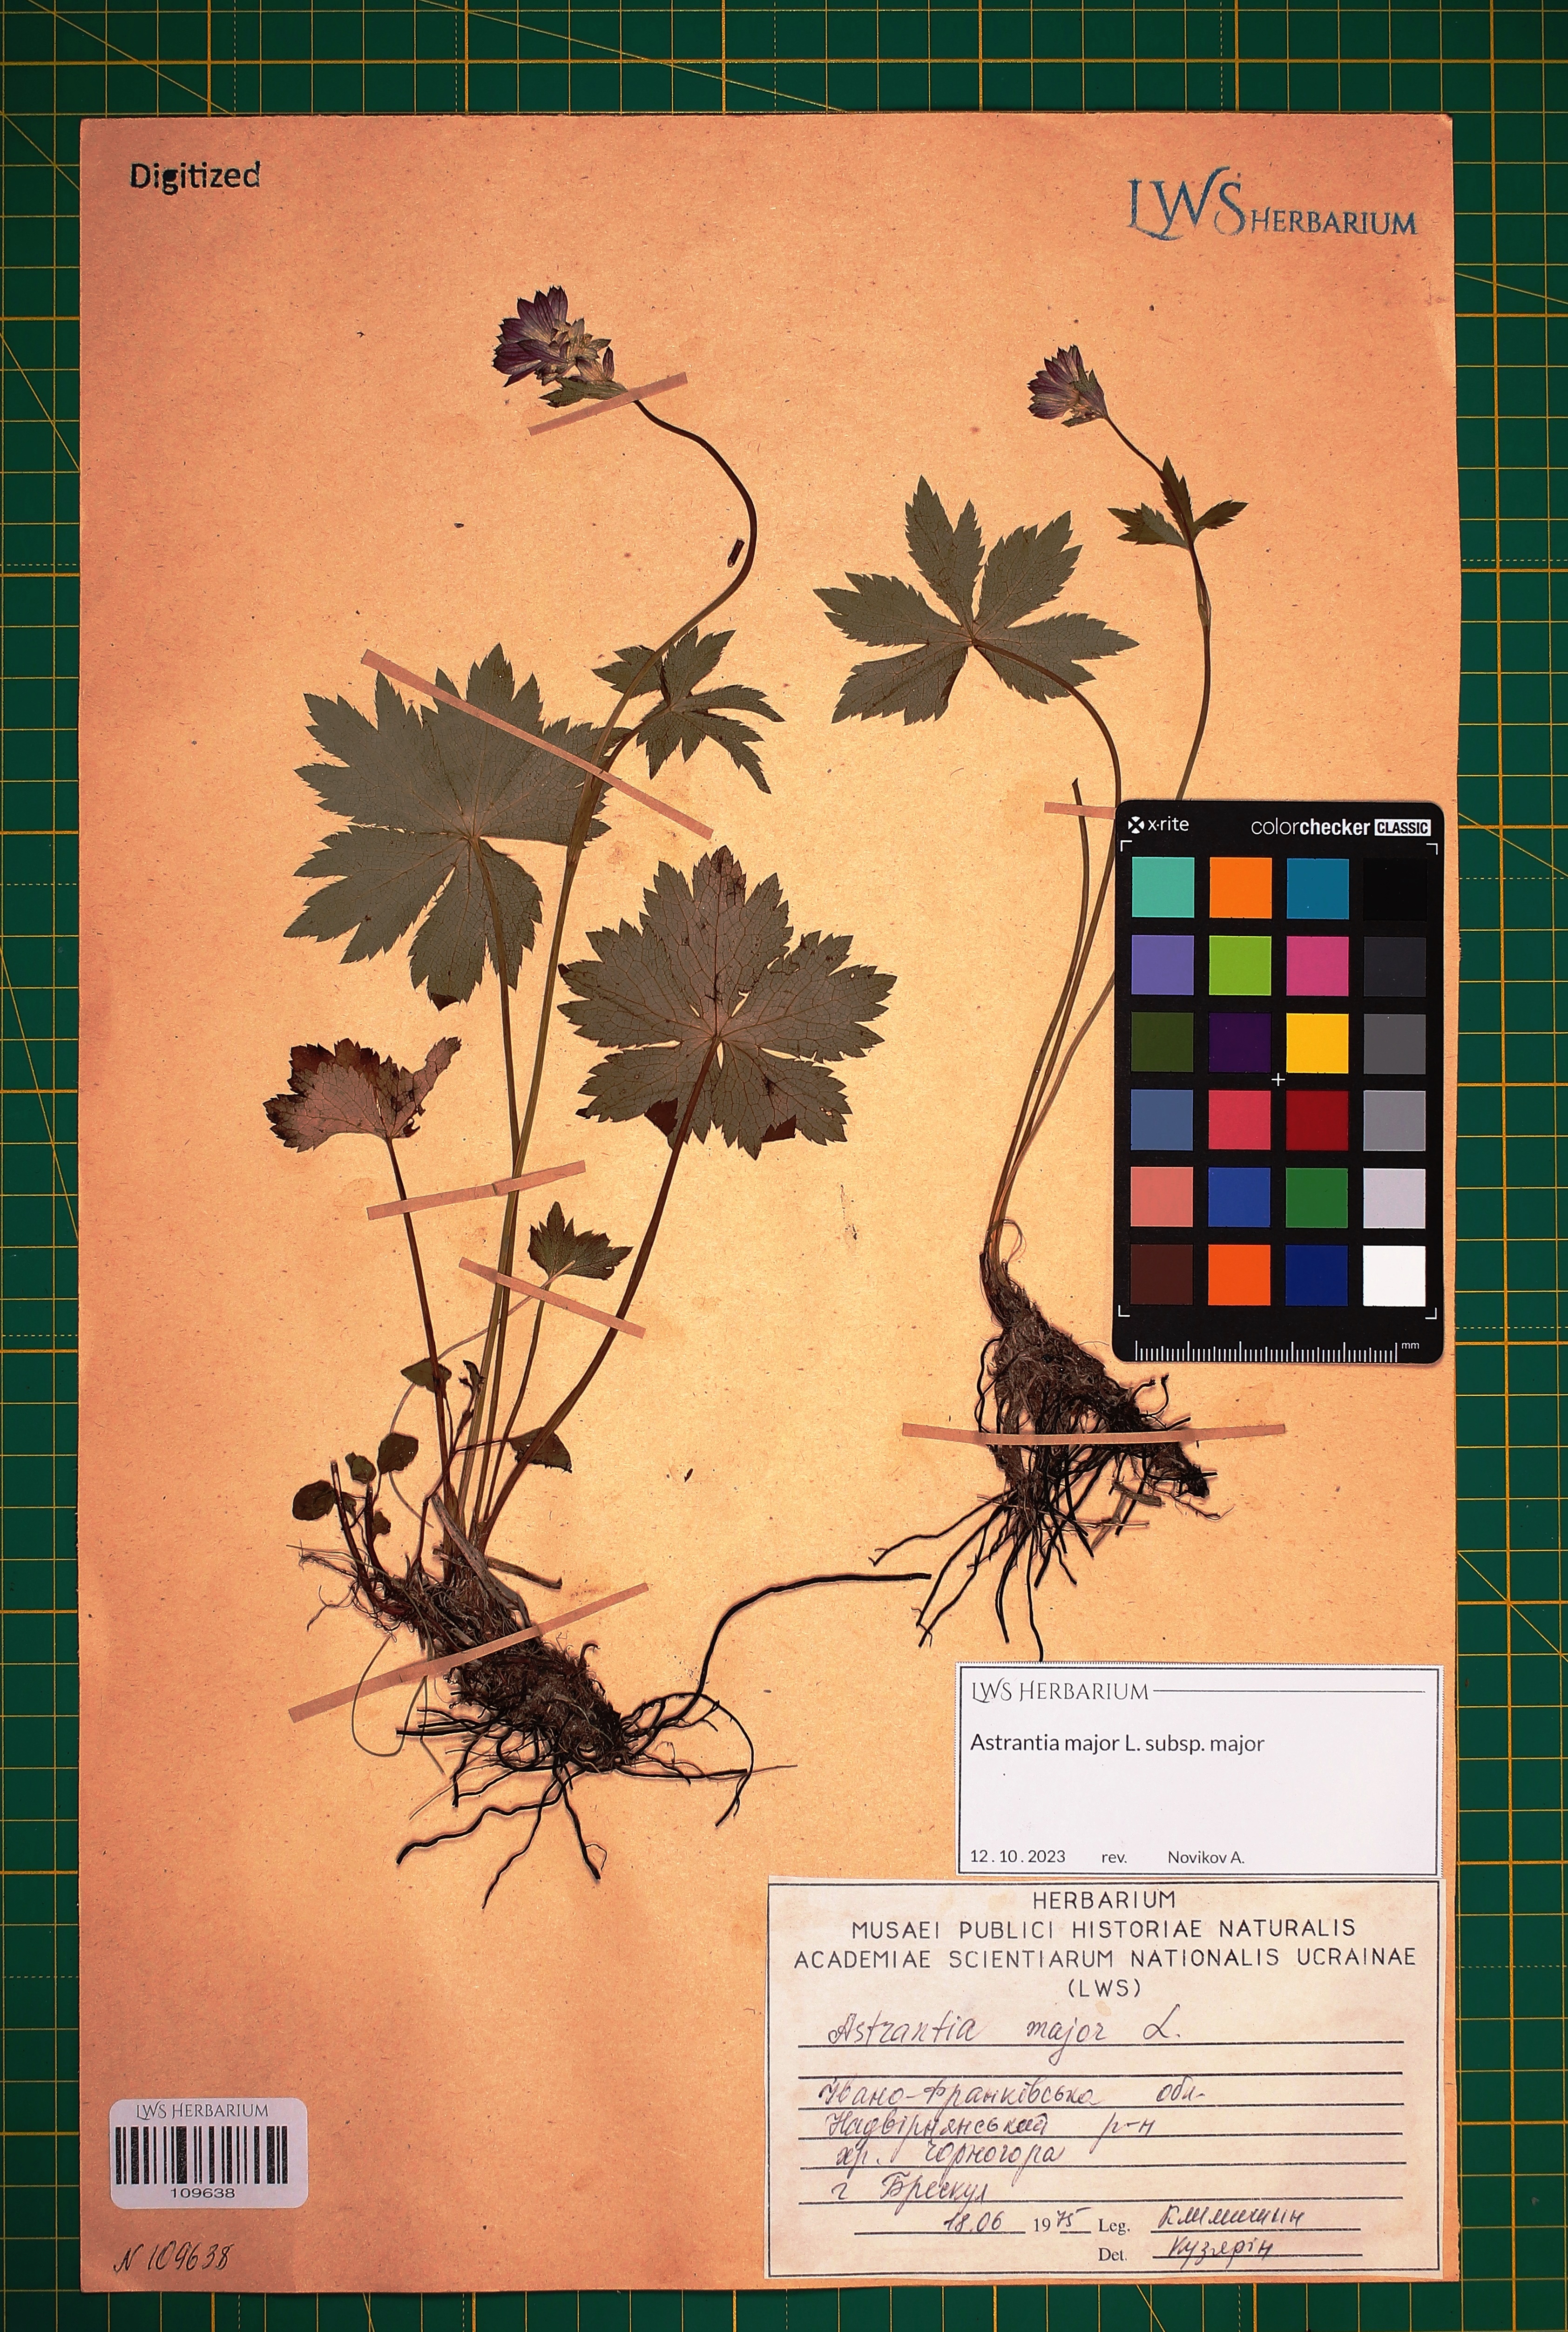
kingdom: Plantae
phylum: Tracheophyta
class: Magnoliopsida
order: Apiales
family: Apiaceae
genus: Astrantia
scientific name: Astrantia major
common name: Greater masterwort
